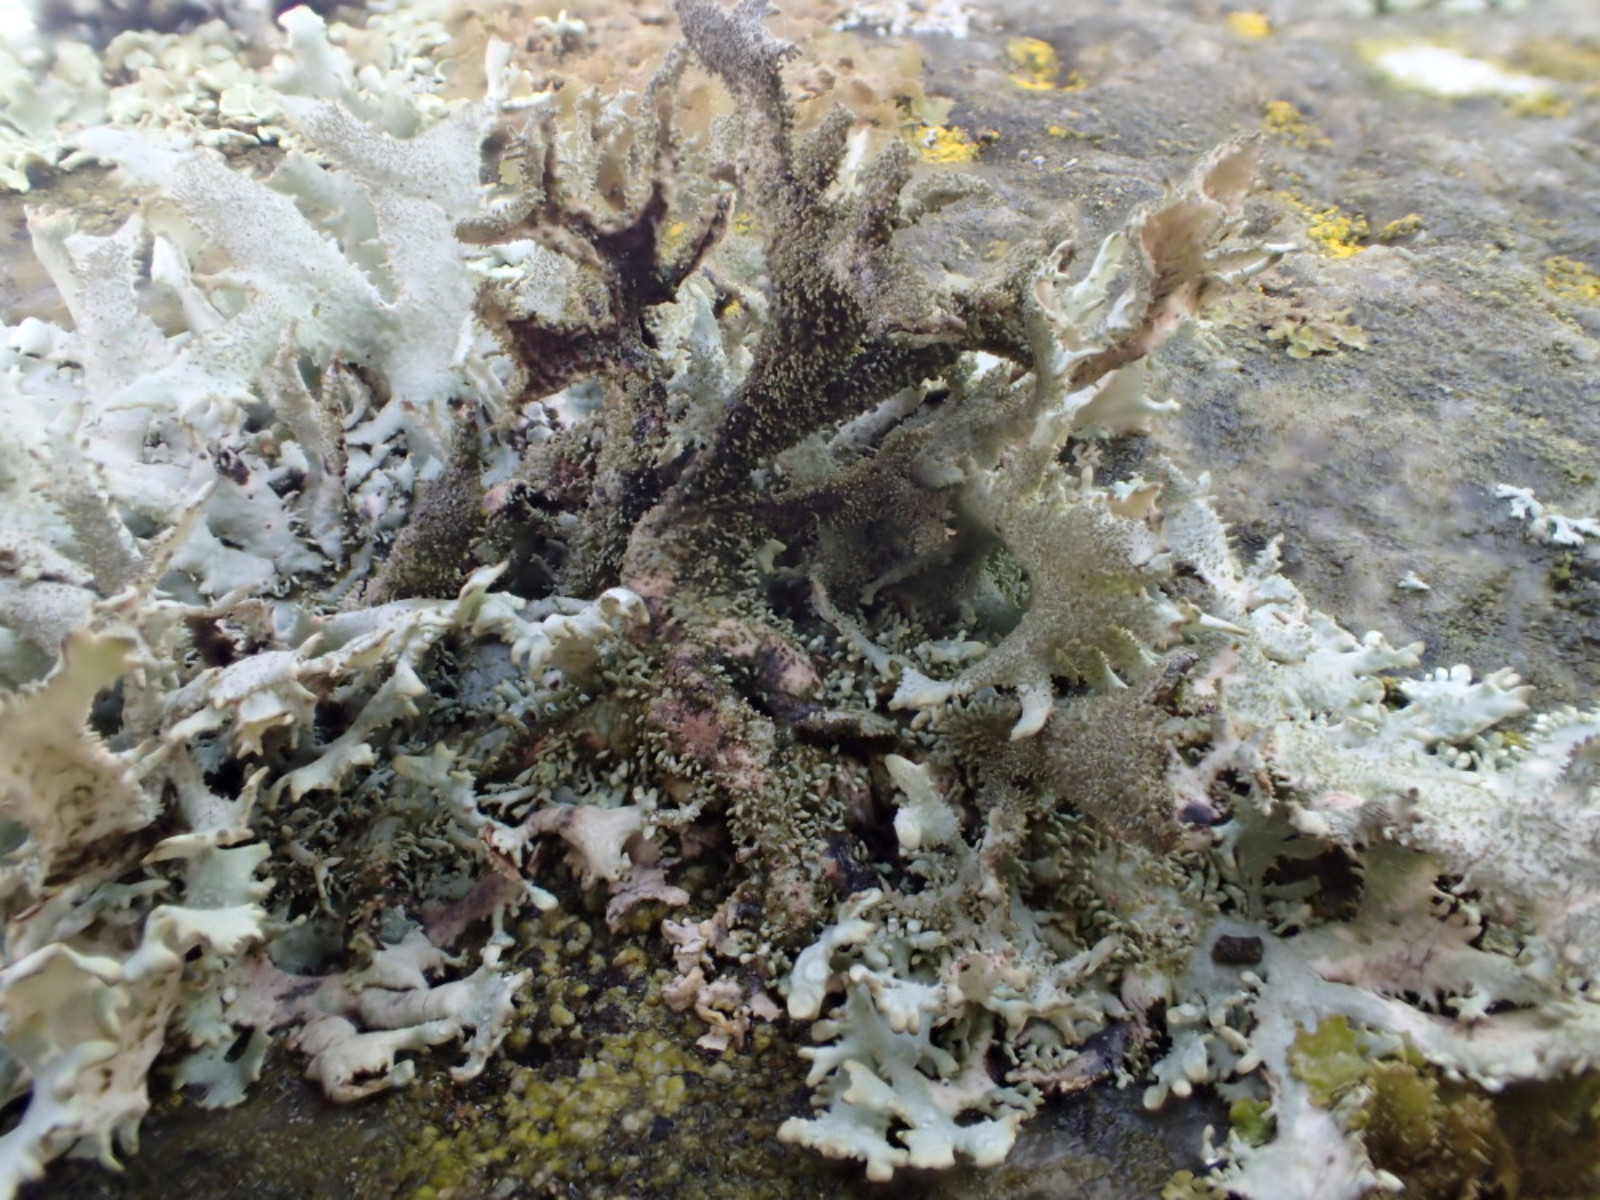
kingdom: Fungi
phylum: Ascomycota
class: Lecanoromycetes
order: Lecanorales
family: Parmeliaceae
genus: Pseudevernia
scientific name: Pseudevernia furfuracea
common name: grå fyrrelav
